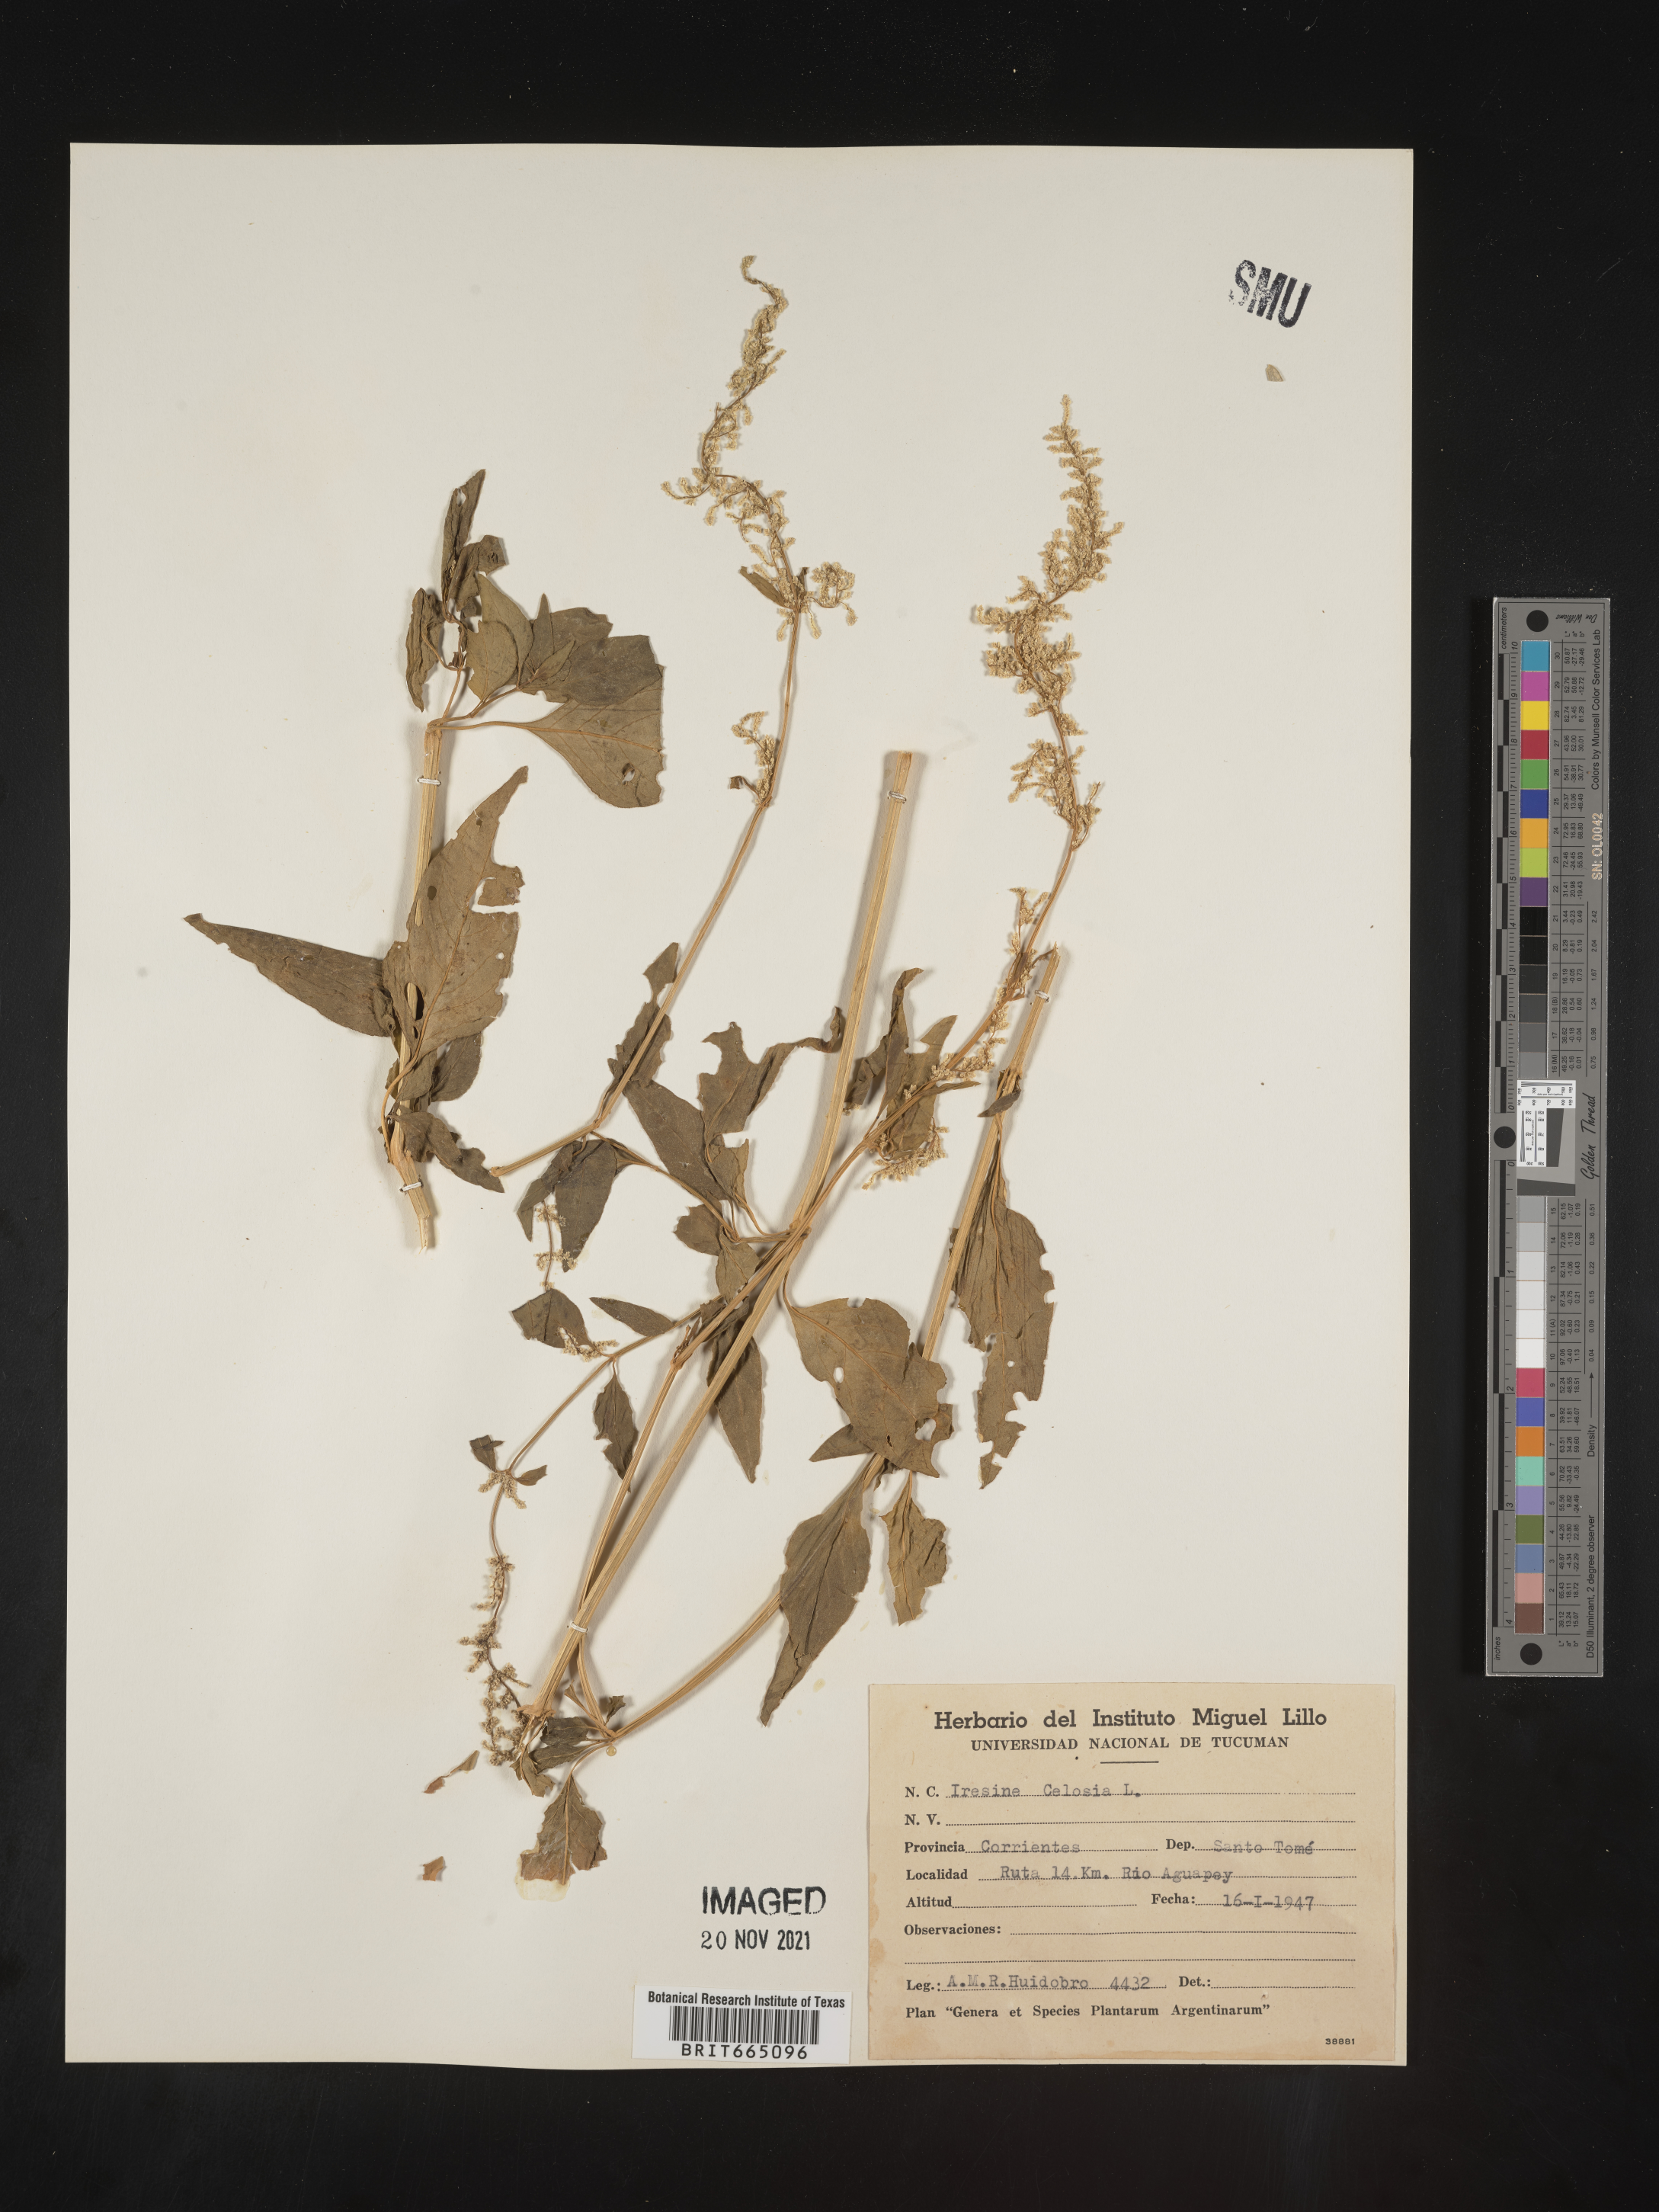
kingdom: Plantae
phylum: Tracheophyta
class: Magnoliopsida
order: Caryophyllales
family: Amaranthaceae
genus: Iresine
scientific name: Iresine
